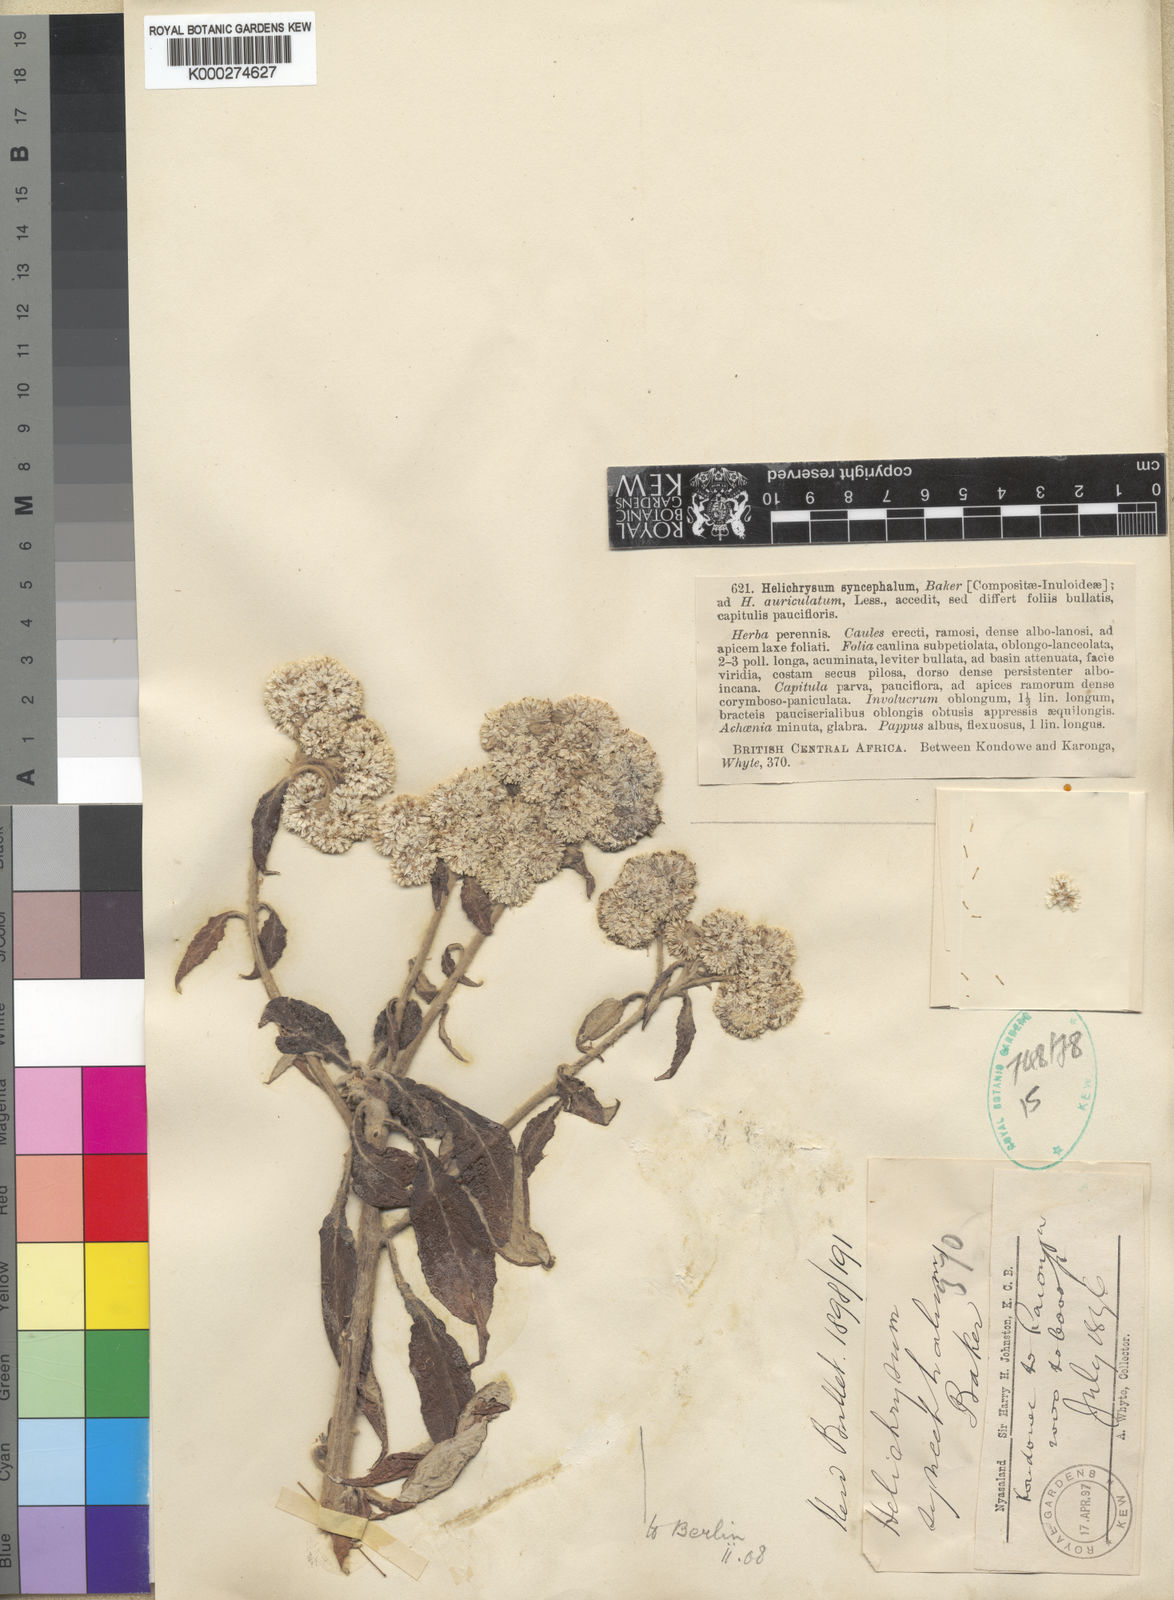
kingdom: Plantae
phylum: Tracheophyta
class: Magnoliopsida
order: Asterales
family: Asteraceae
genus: Helichrysum
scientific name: Helichrysum syncephalum
